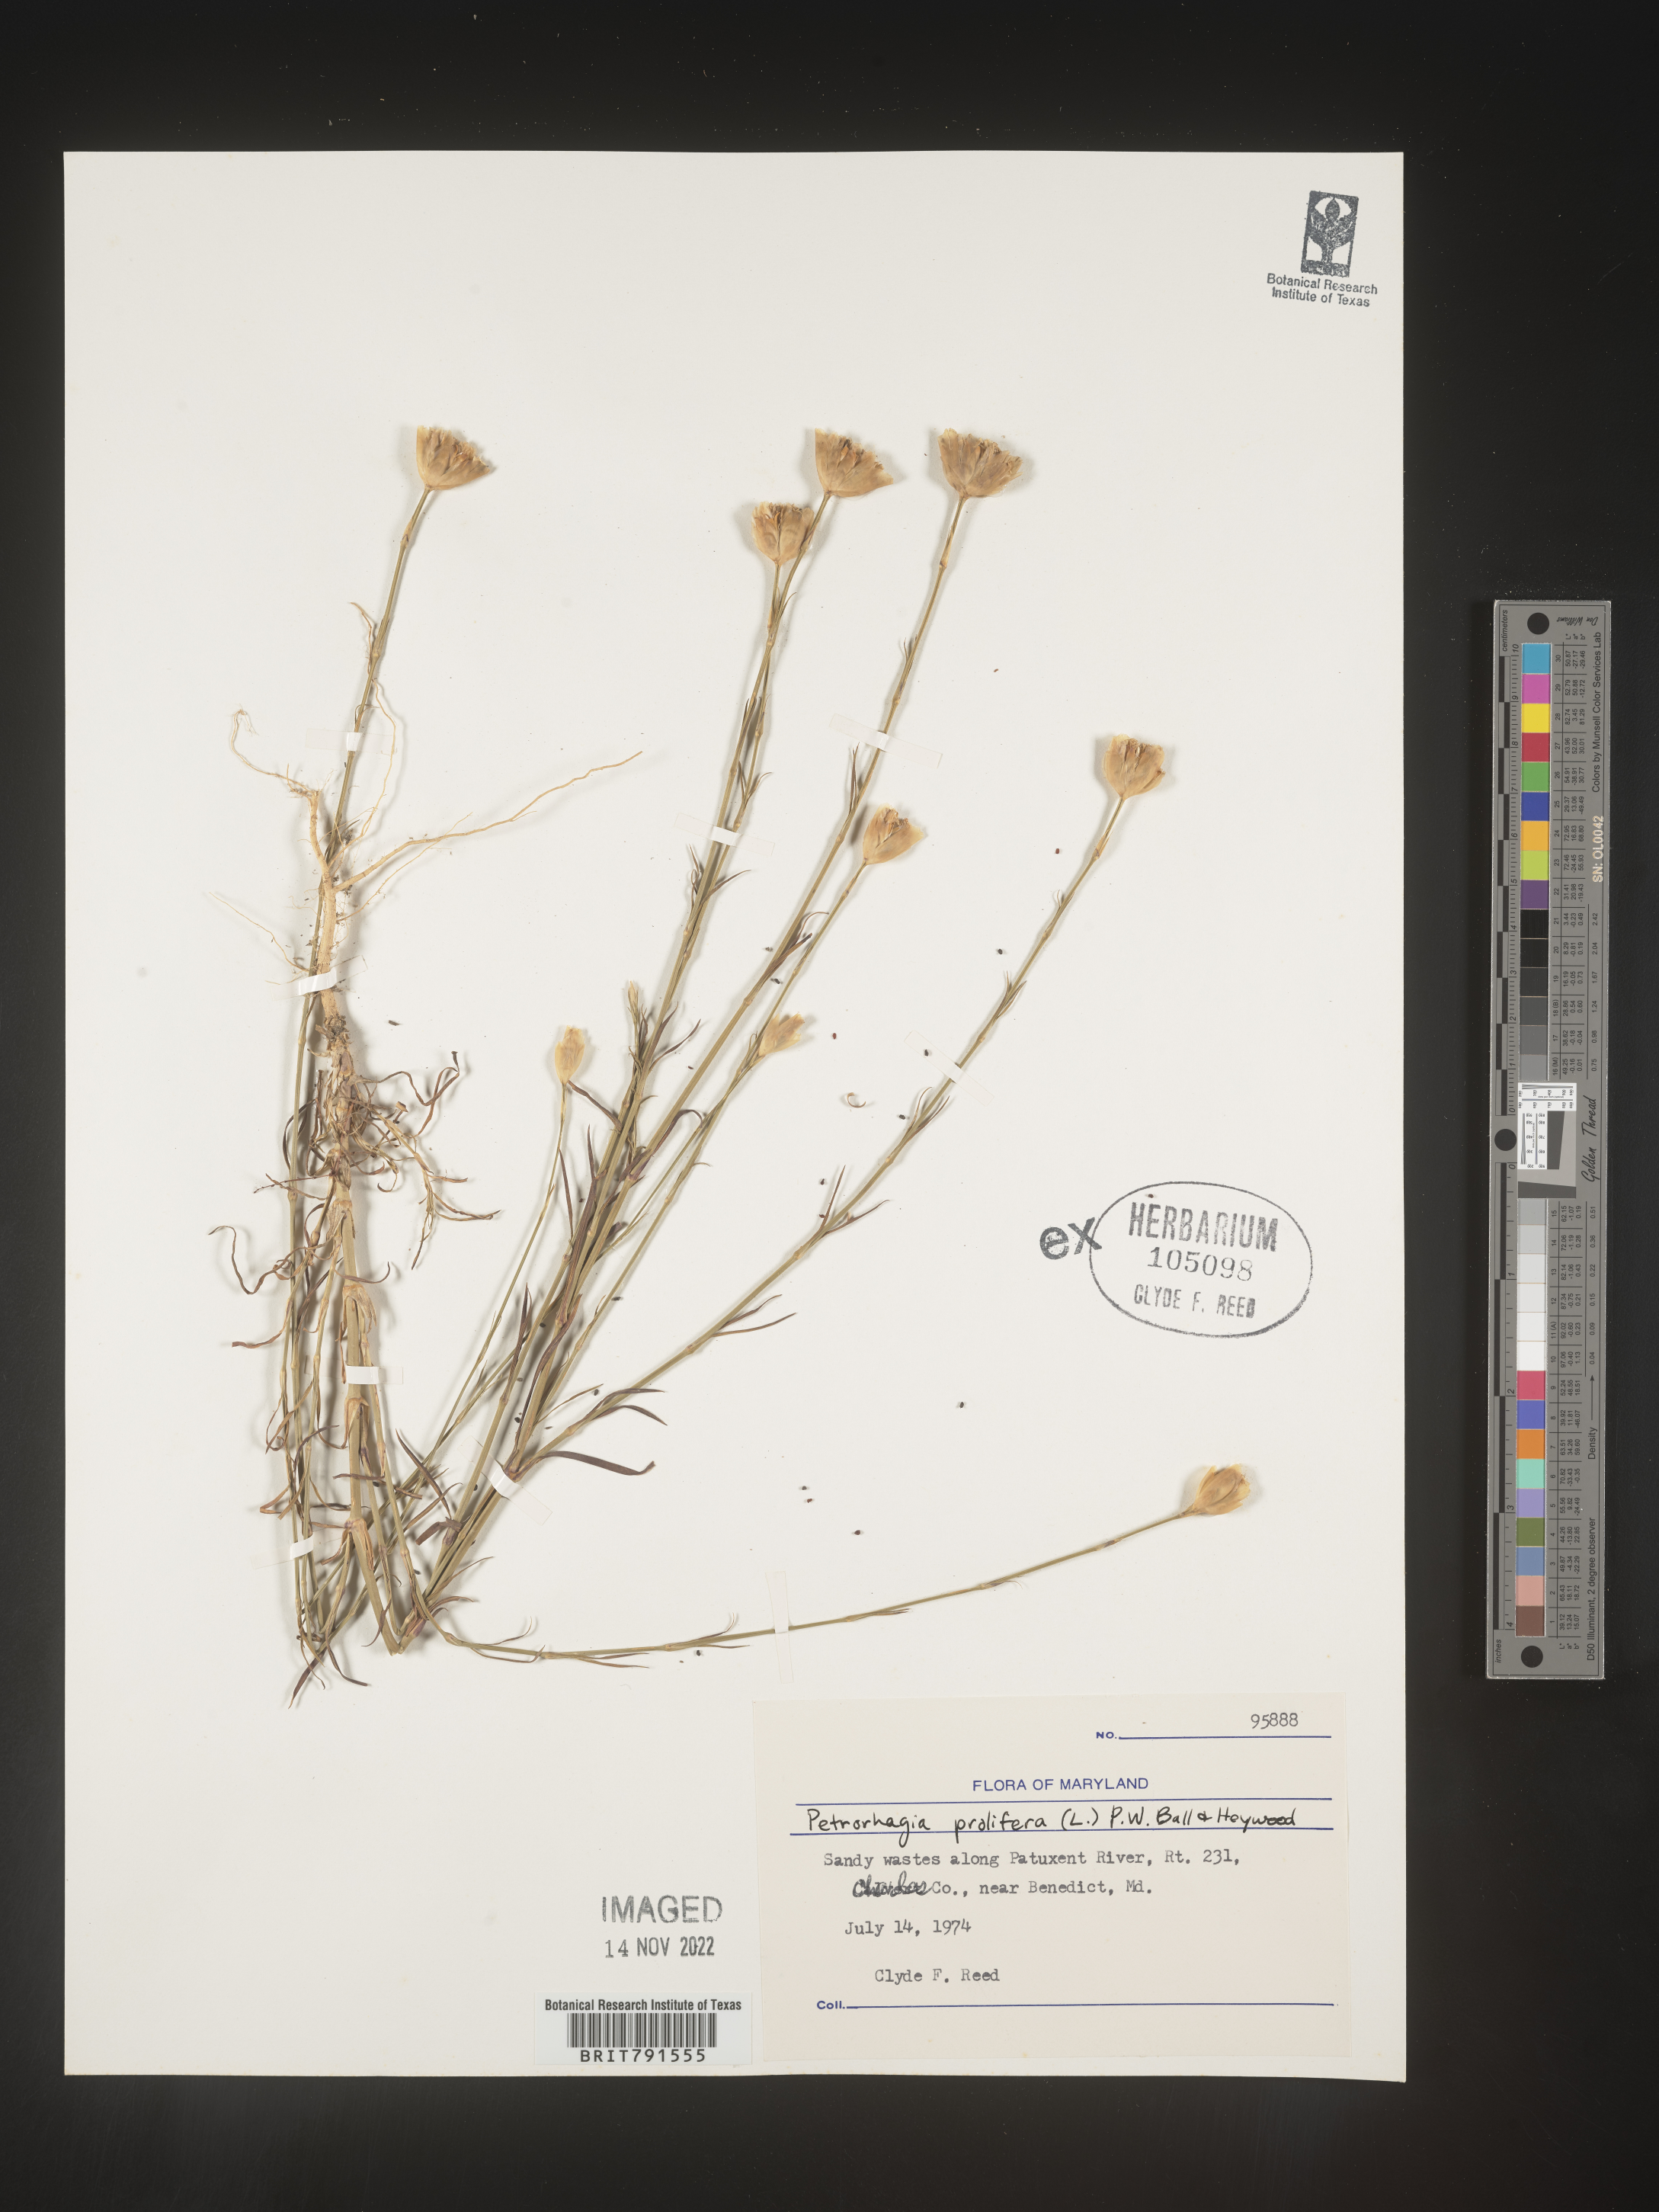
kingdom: Plantae
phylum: Tracheophyta
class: Magnoliopsida
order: Caryophyllales
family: Caryophyllaceae
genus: Petrorhagia
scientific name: Petrorhagia
